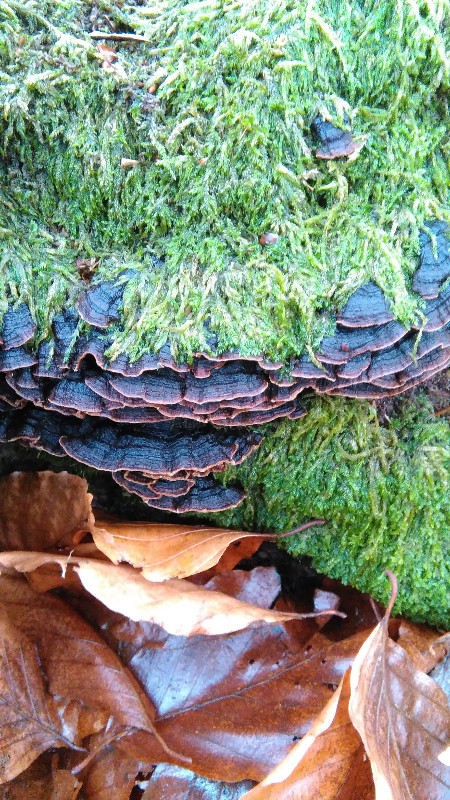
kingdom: Fungi
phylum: Basidiomycota
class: Agaricomycetes
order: Hymenochaetales
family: Hymenochaetaceae
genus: Hymenochaete
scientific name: Hymenochaete rubiginosa
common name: stiv ruslædersvamp
